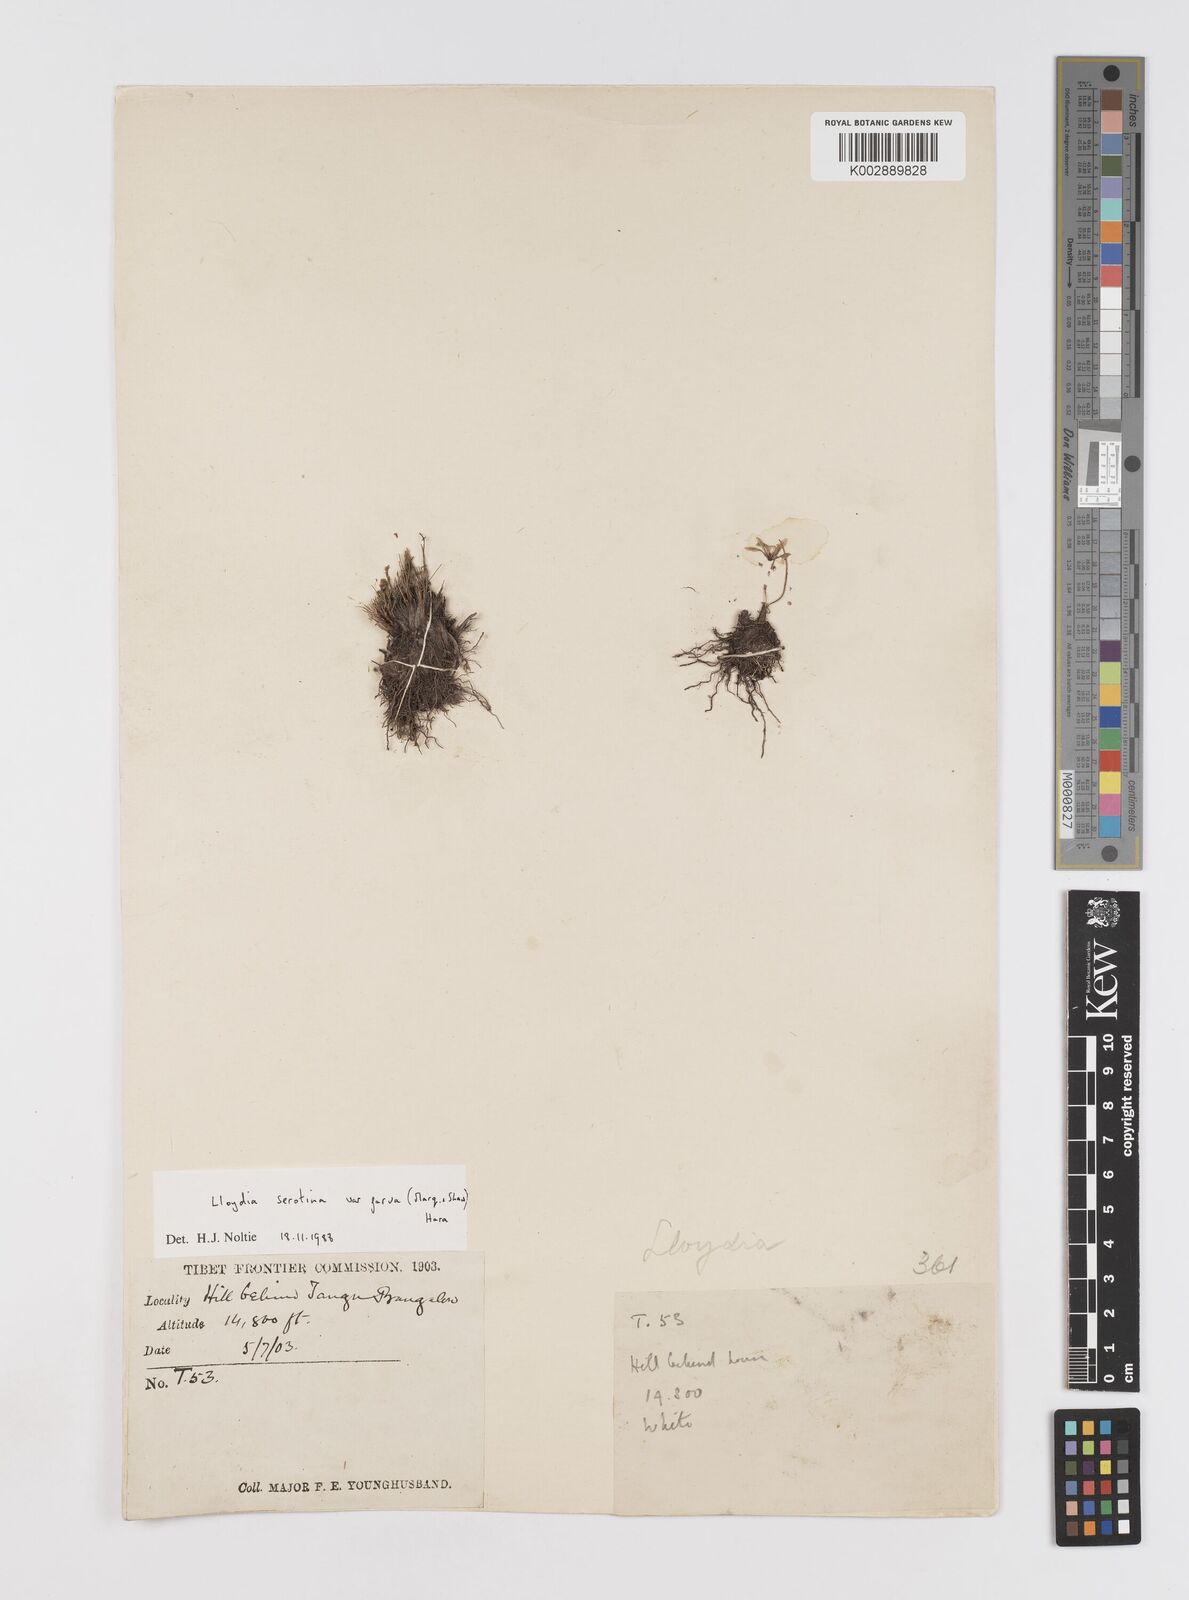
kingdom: Plantae
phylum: Tracheophyta
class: Liliopsida
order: Liliales
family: Liliaceae
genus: Gagea
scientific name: Gagea serotina
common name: Snowdon lily
